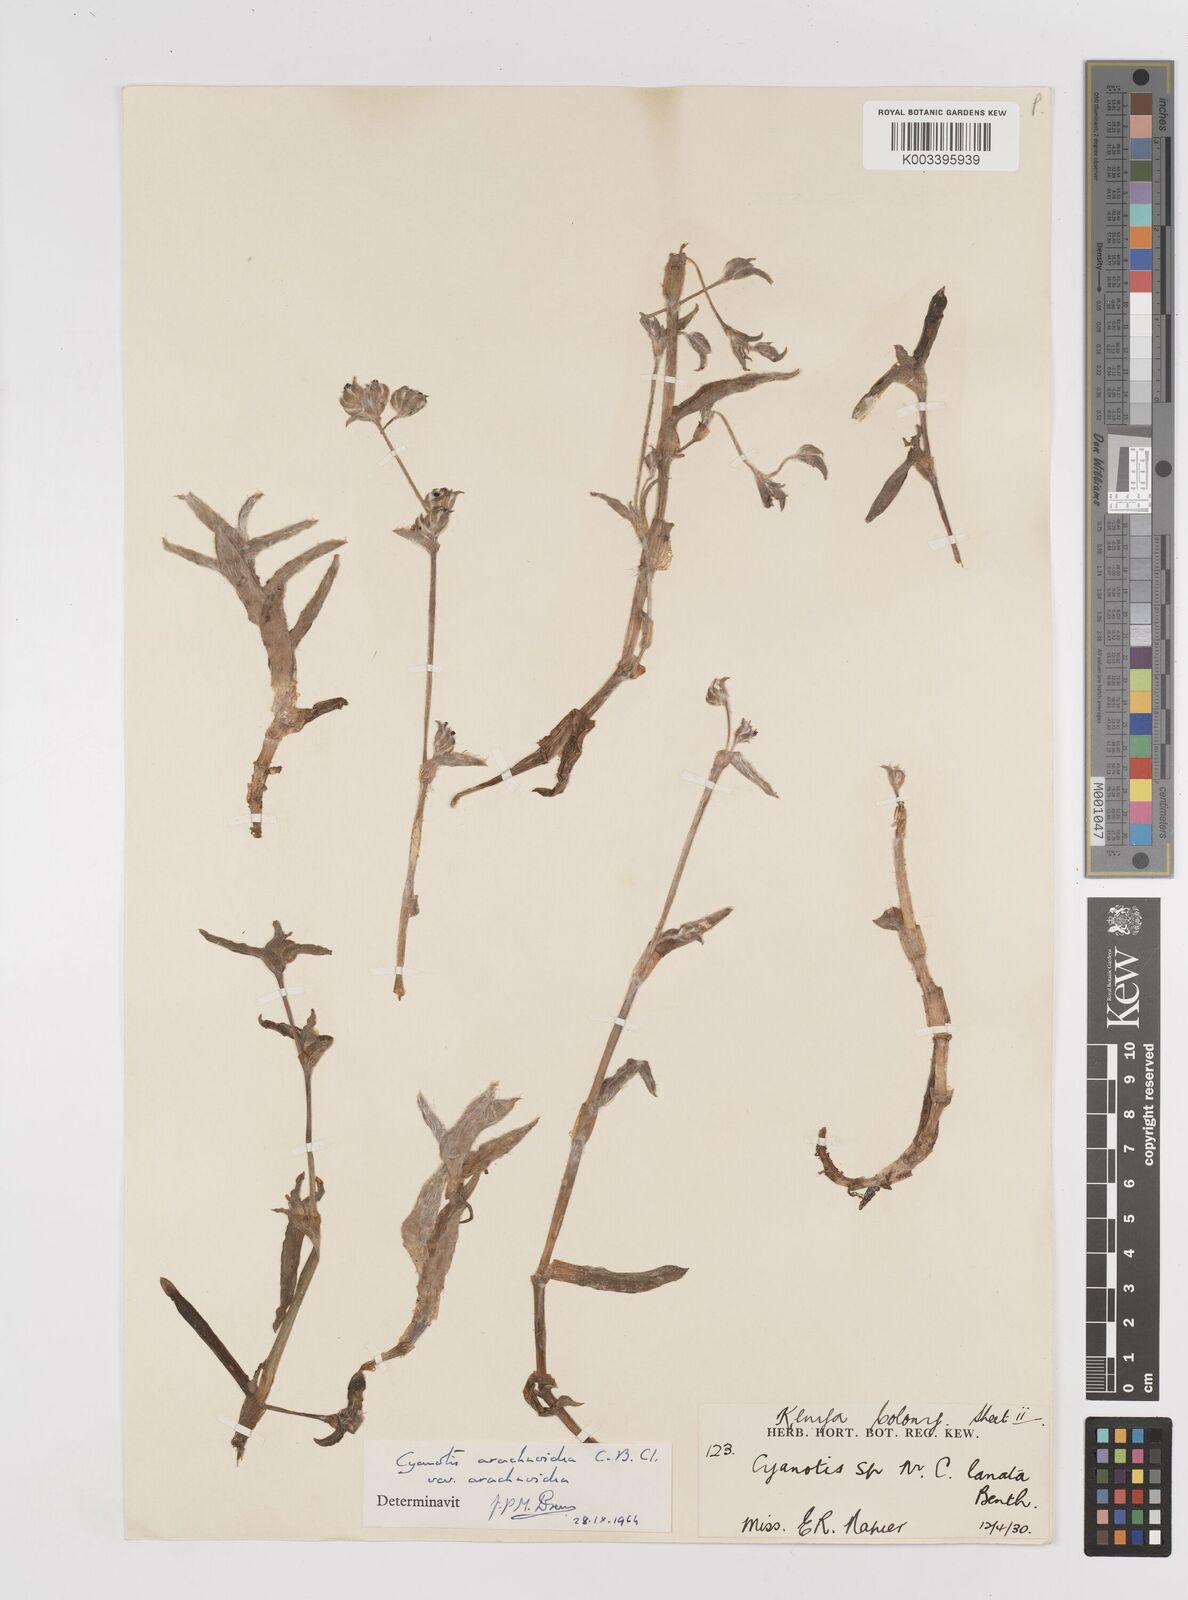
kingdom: Plantae
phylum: Tracheophyta
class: Liliopsida
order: Commelinales
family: Commelinaceae
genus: Cyanotis
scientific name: Cyanotis arachnoidea
